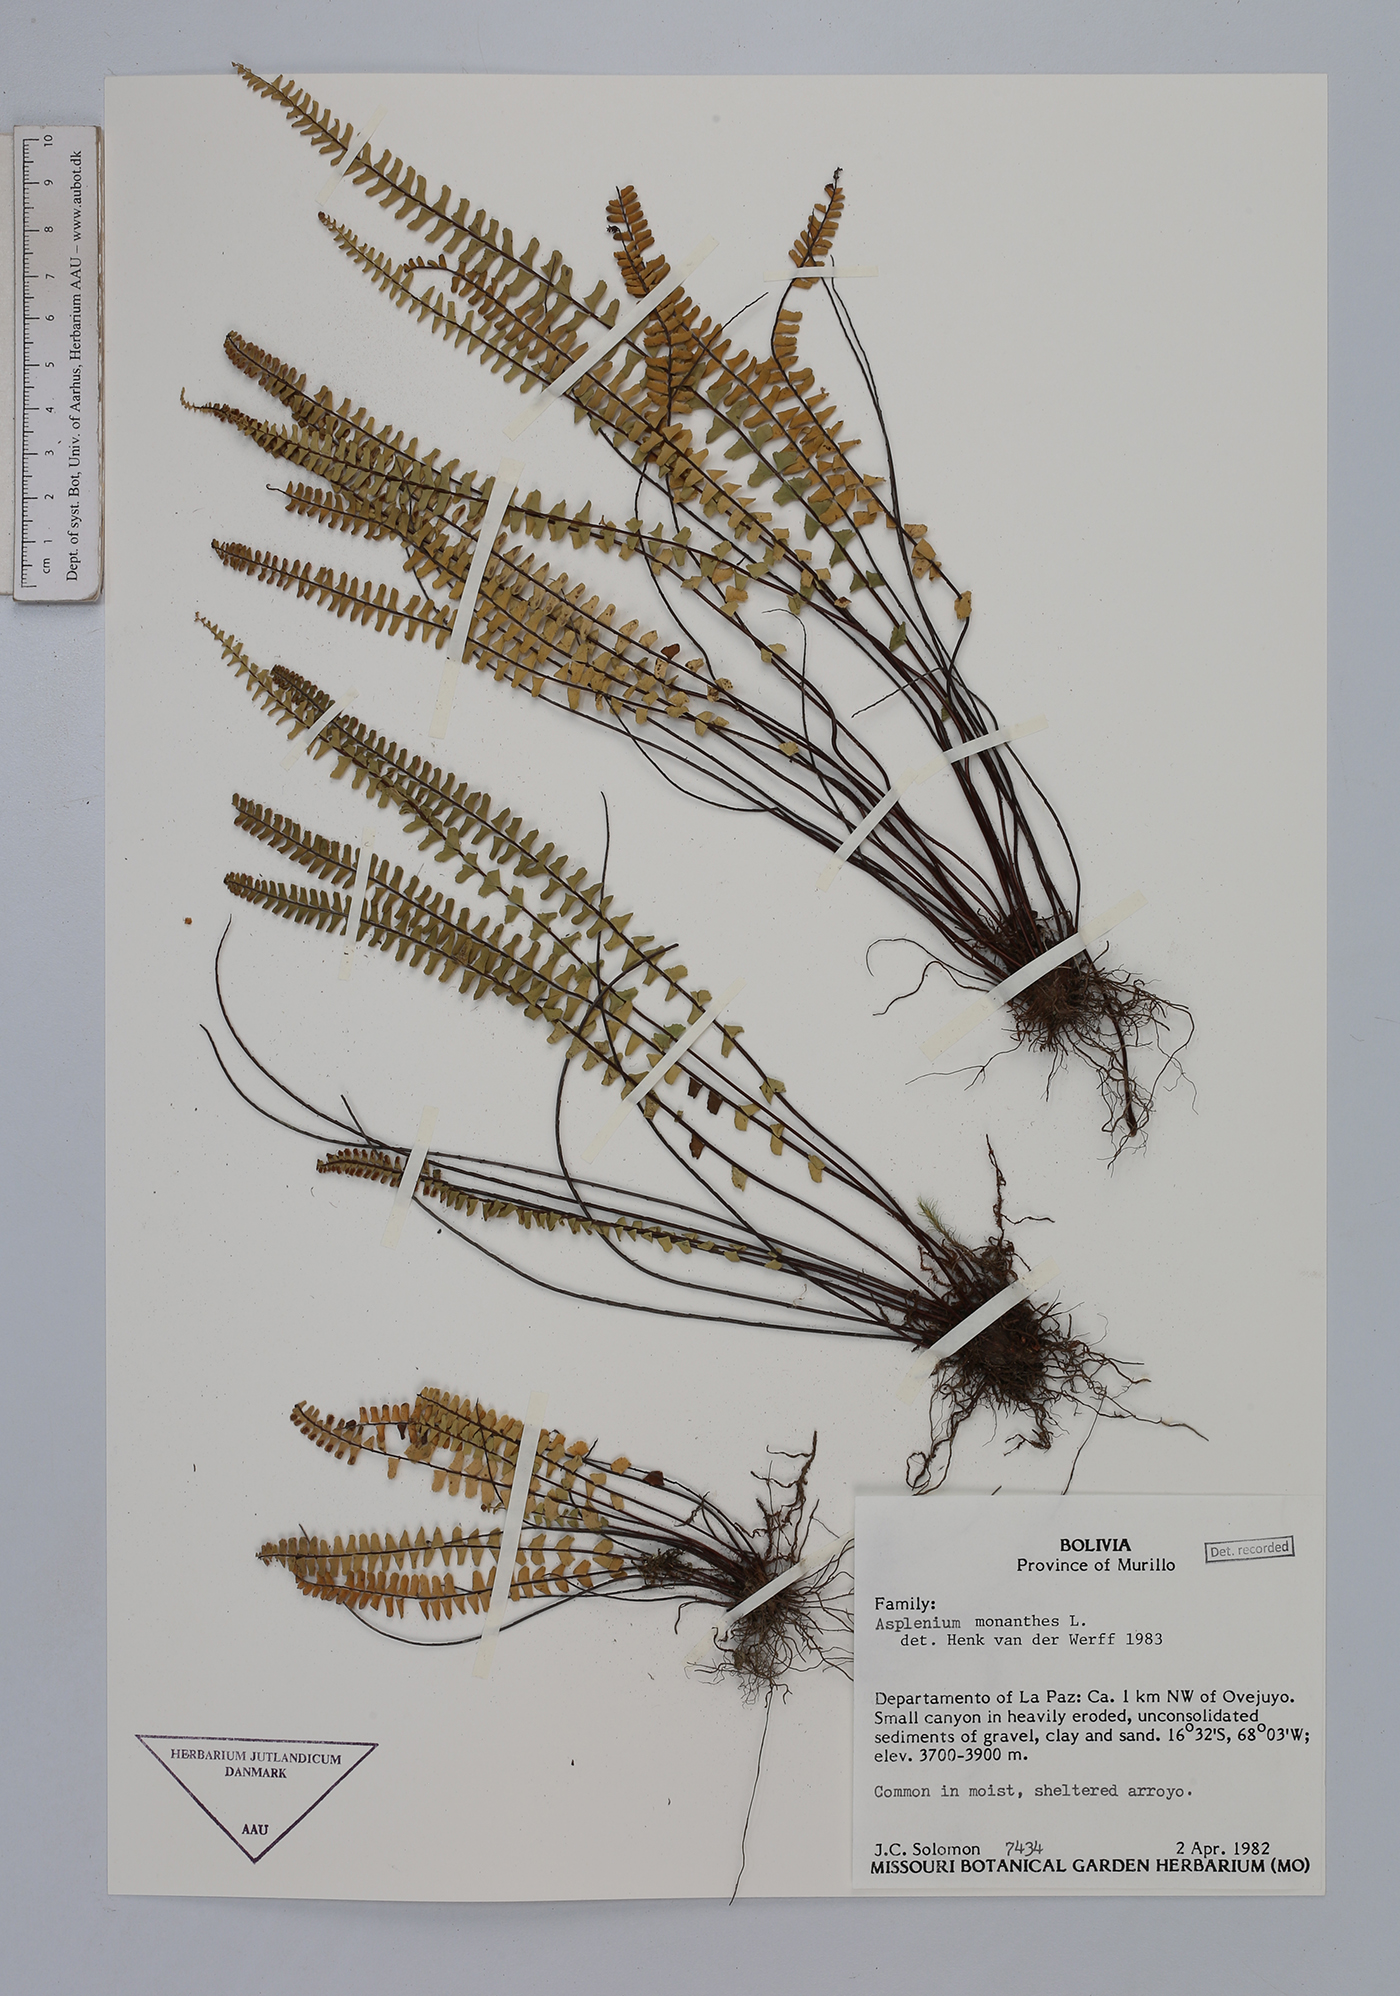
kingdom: Plantae
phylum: Tracheophyta
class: Polypodiopsida
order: Polypodiales
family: Aspleniaceae
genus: Asplenium
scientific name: Asplenium monanthes
